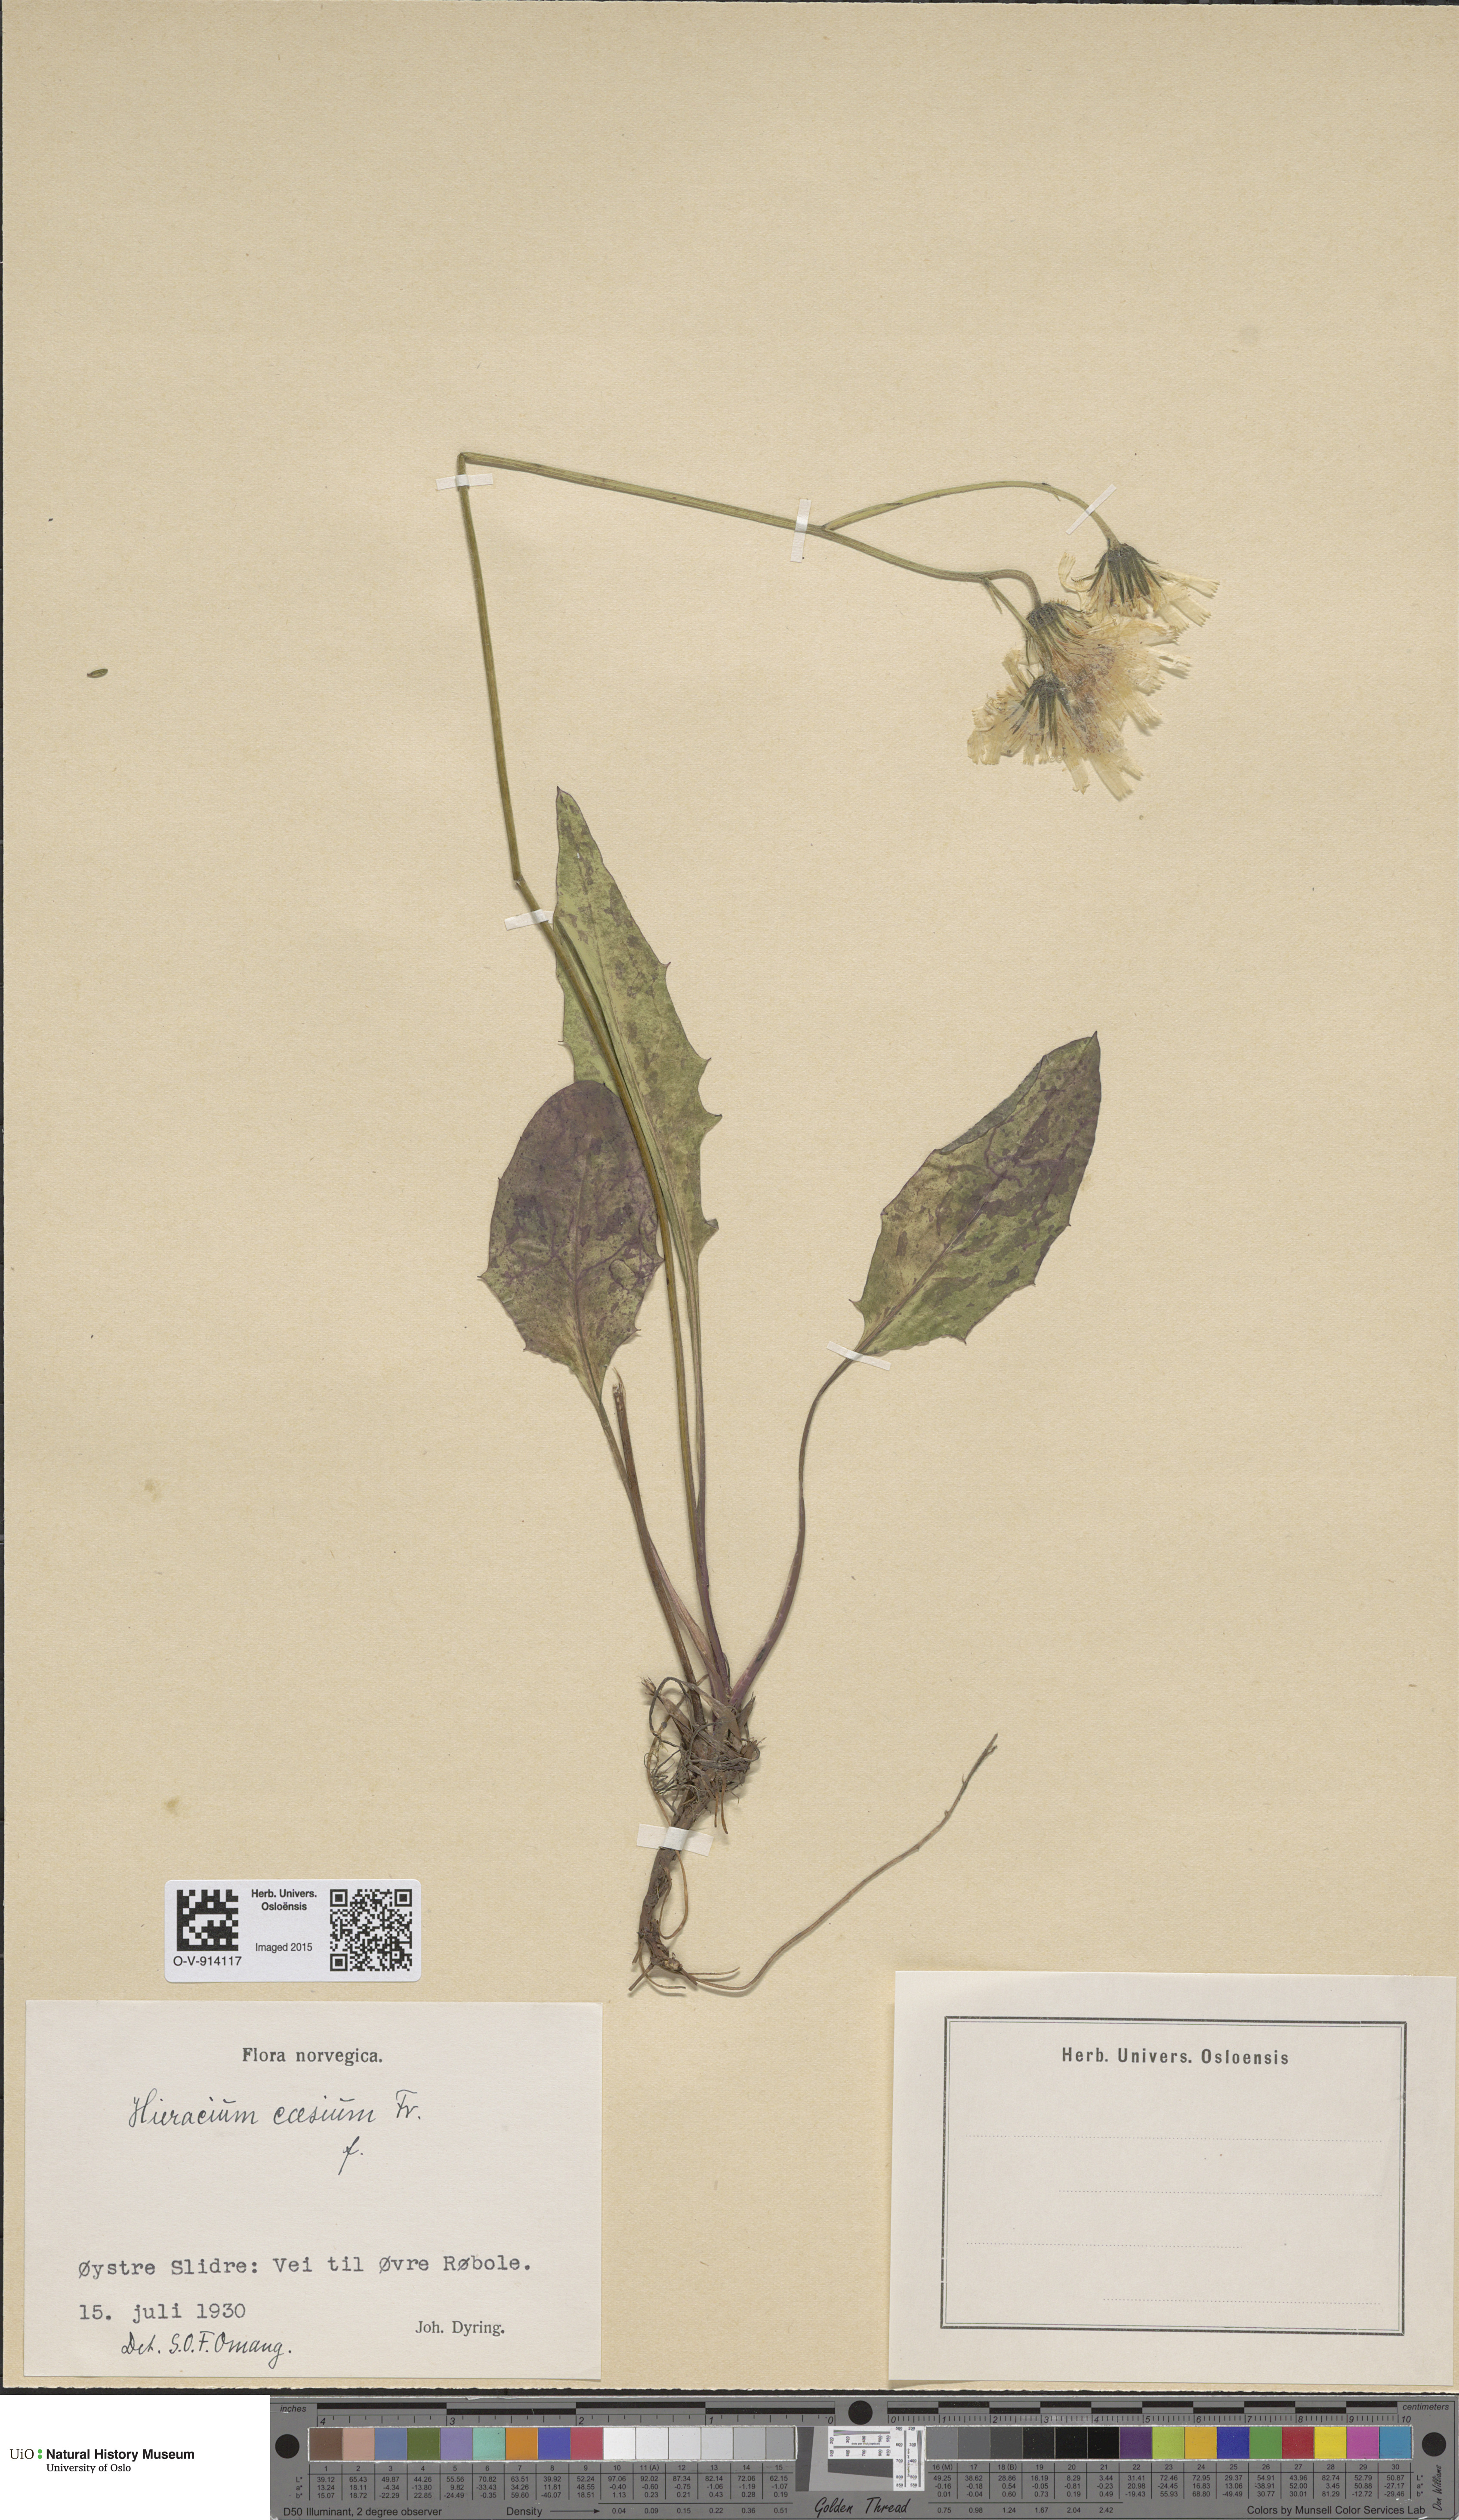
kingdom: Plantae
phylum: Tracheophyta
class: Magnoliopsida
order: Asterales
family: Asteraceae
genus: Hieracium
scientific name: Hieracium caesium
